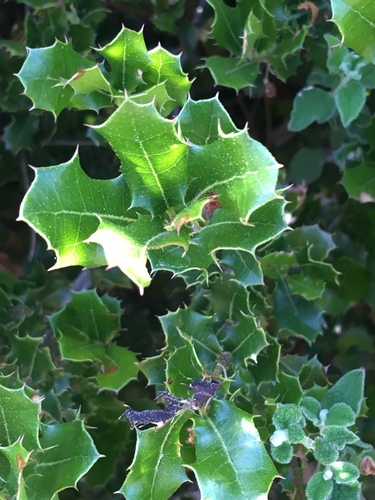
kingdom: Plantae
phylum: Tracheophyta
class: Magnoliopsida
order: Fagales
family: Fagaceae
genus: Quercus
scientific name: Quercus coccifera
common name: Kermes oak
